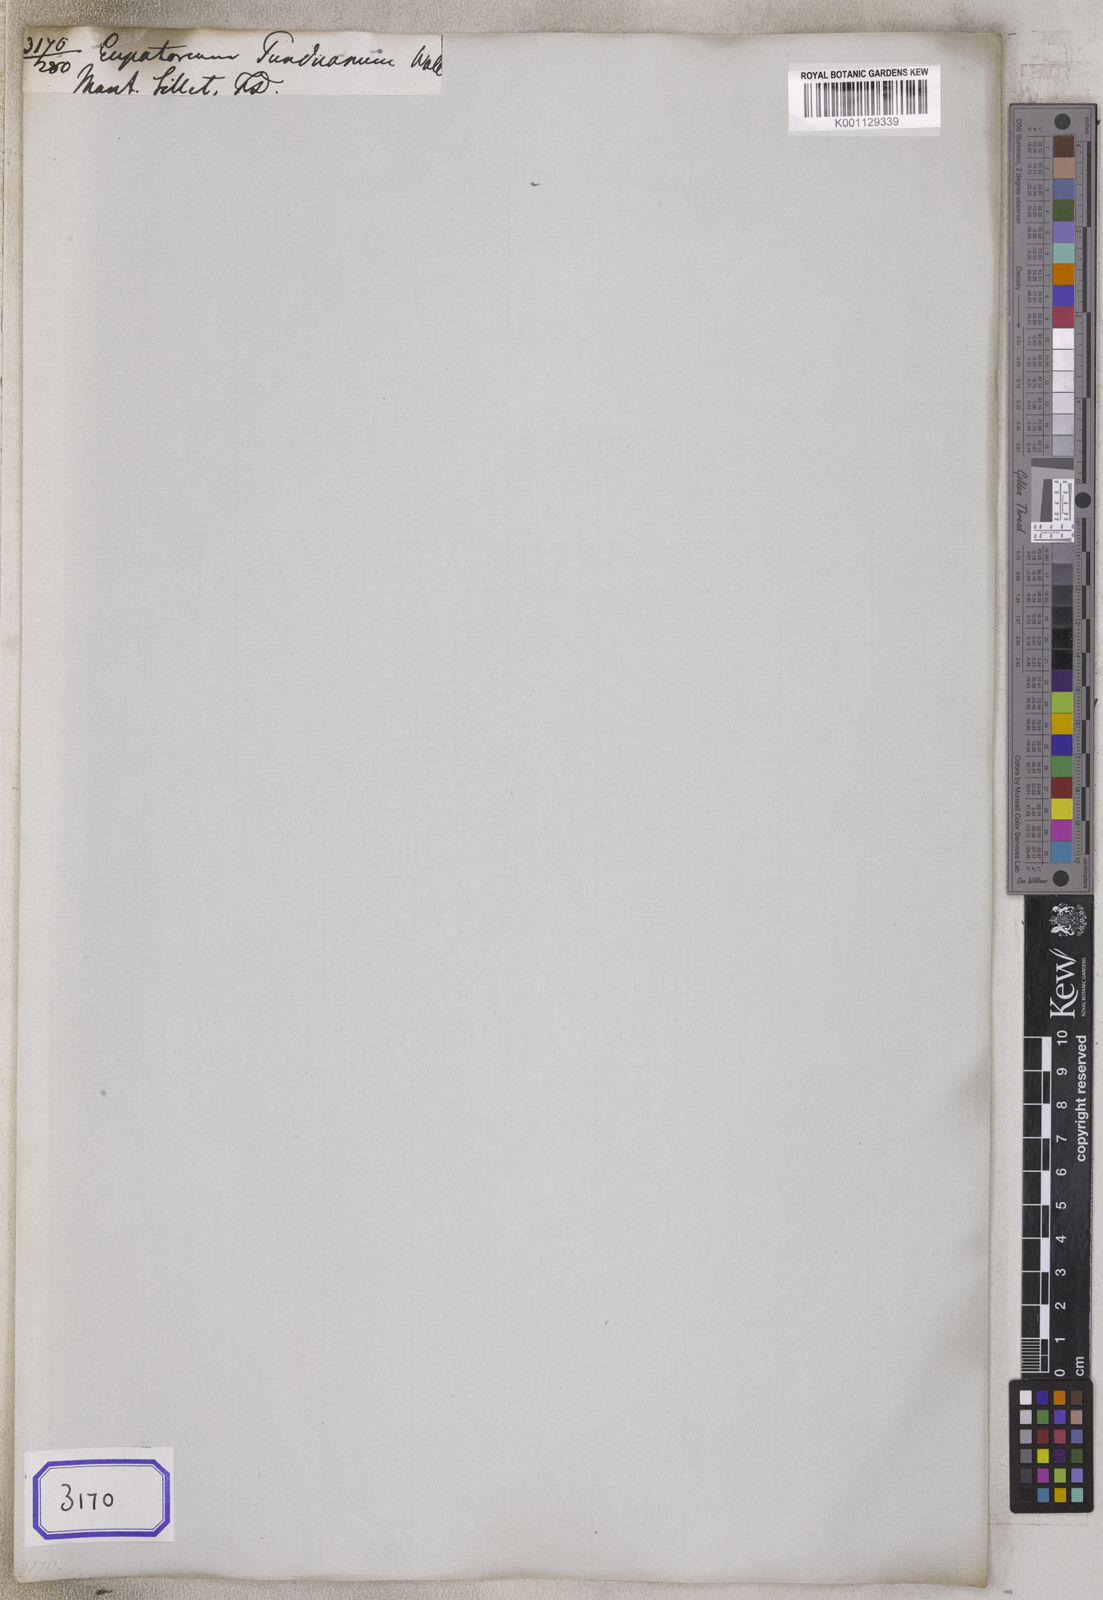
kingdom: Plantae
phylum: Tracheophyta
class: Magnoliopsida
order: Asterales
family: Asteraceae
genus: Eupatorium
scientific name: Eupatorium
